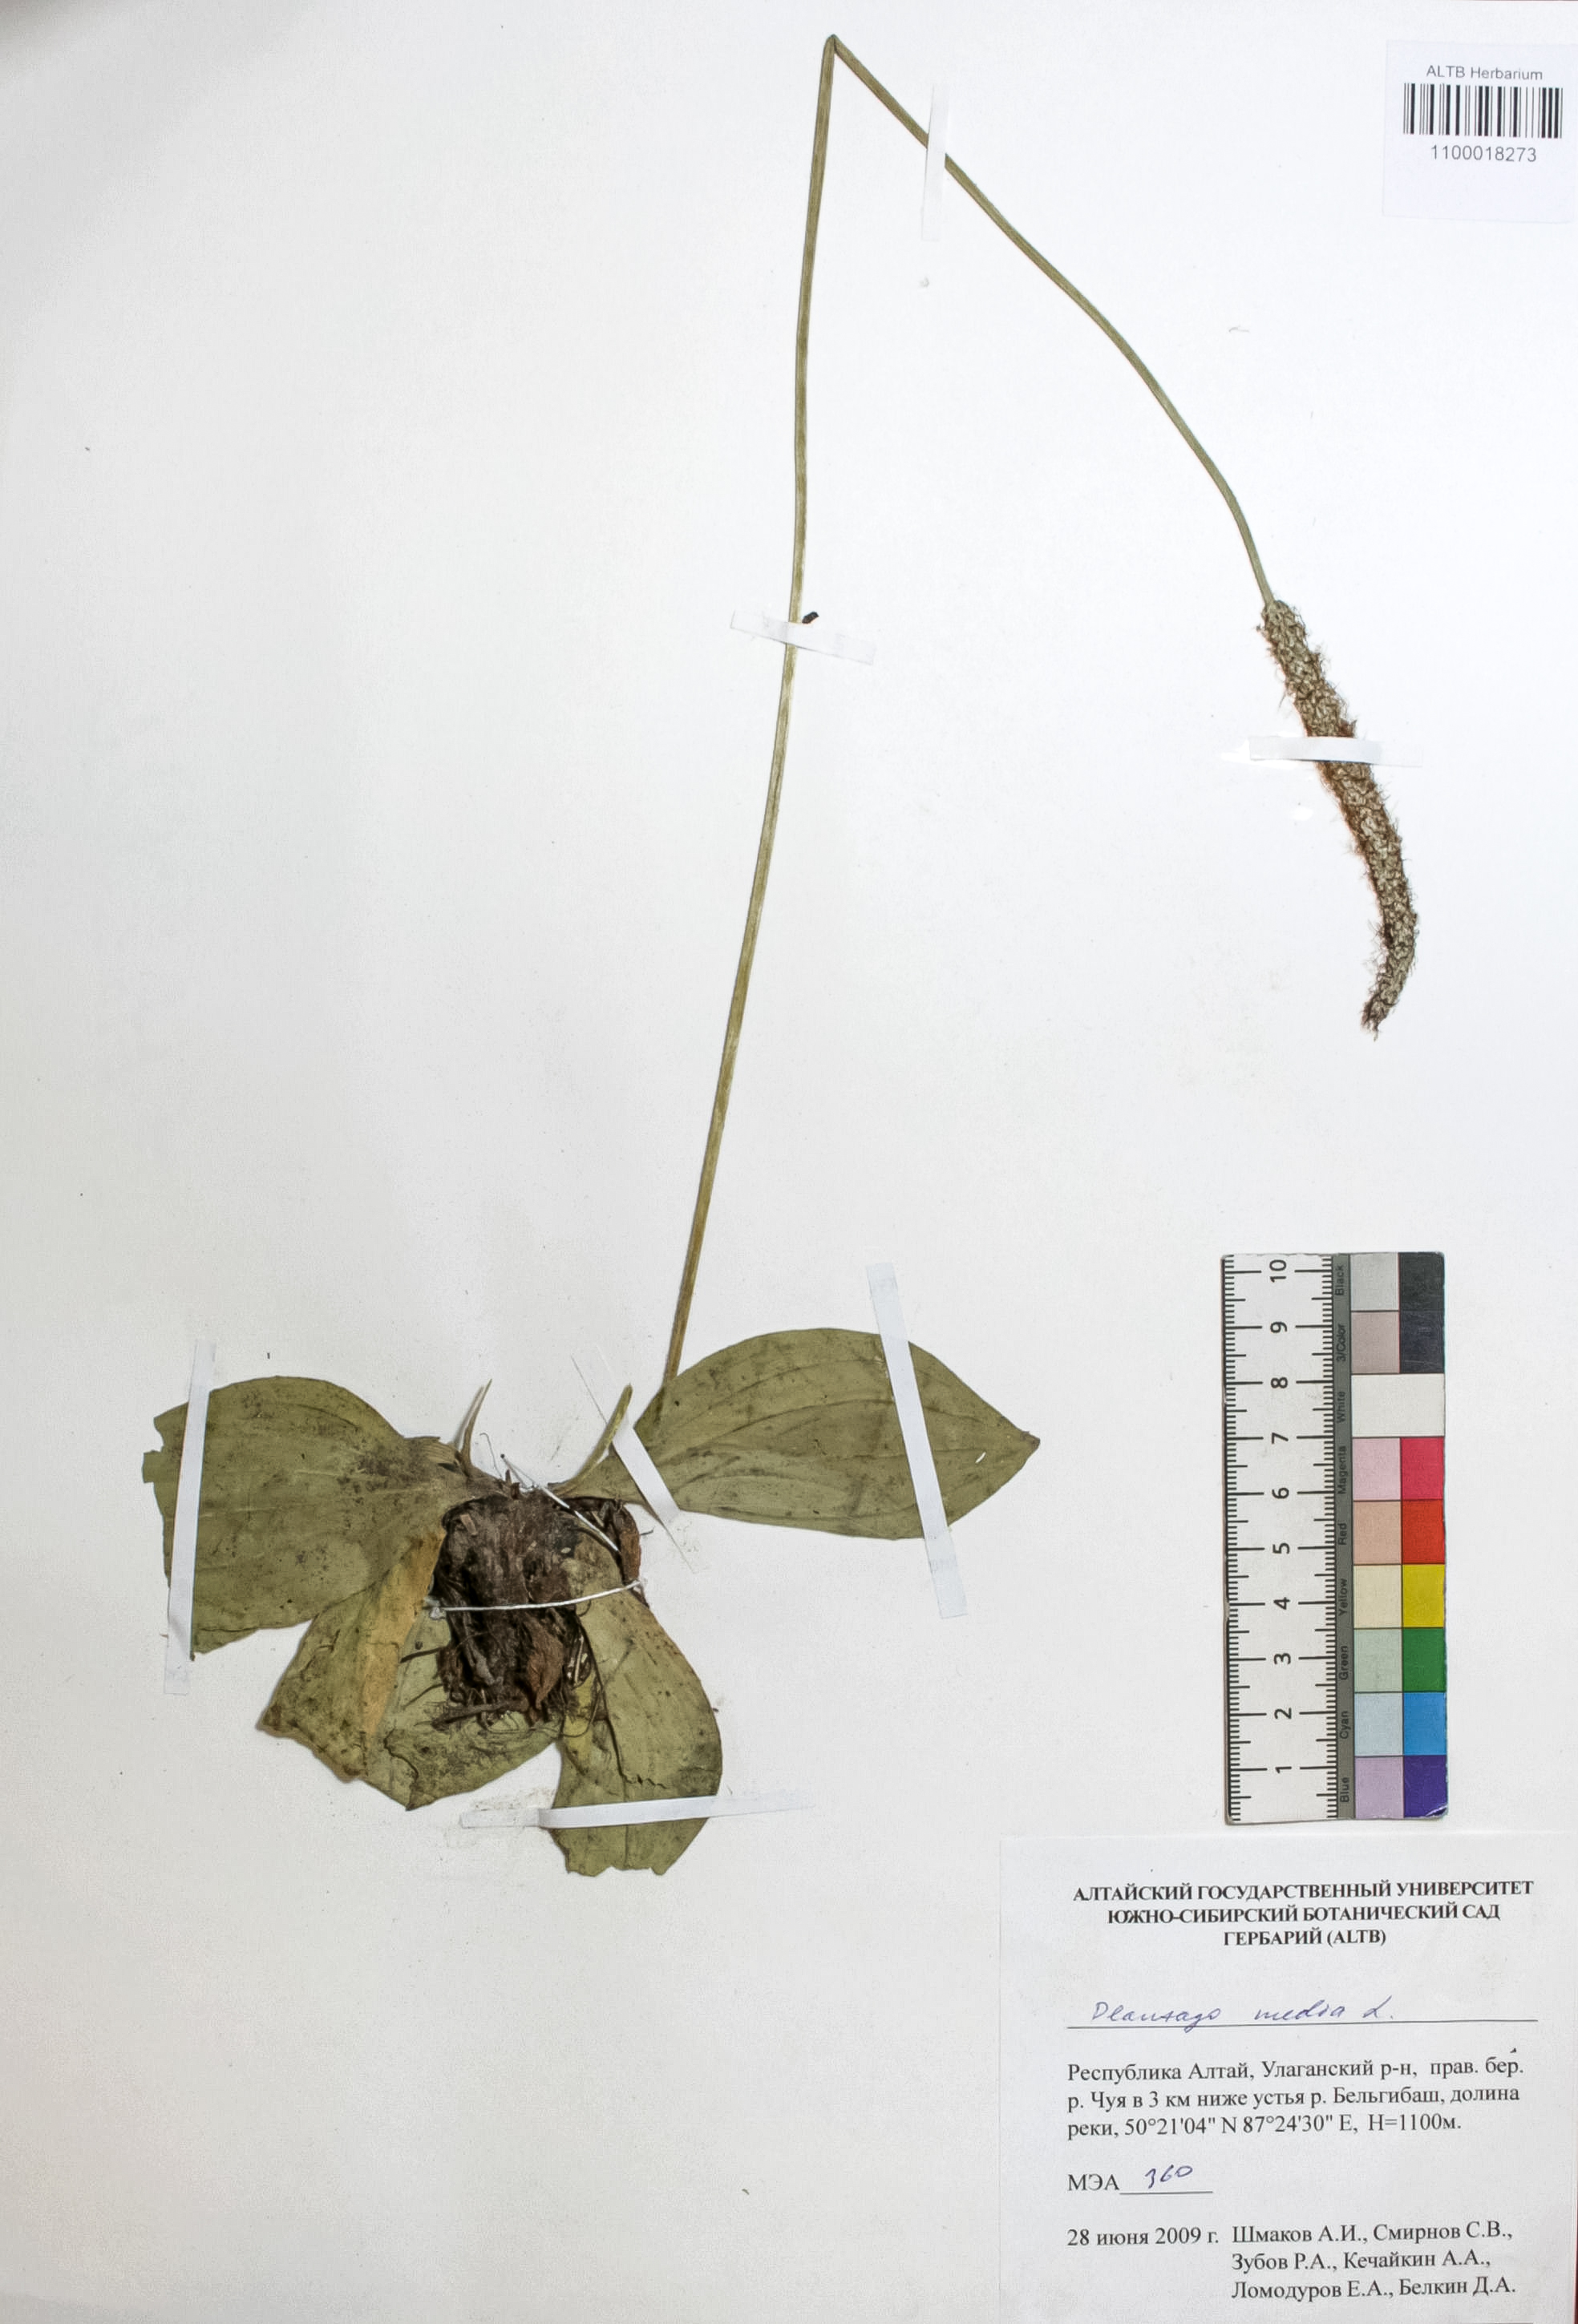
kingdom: Plantae
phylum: Tracheophyta
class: Magnoliopsida
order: Lamiales
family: Plantaginaceae
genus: Plantago
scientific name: Plantago media
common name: Hoary plantain
